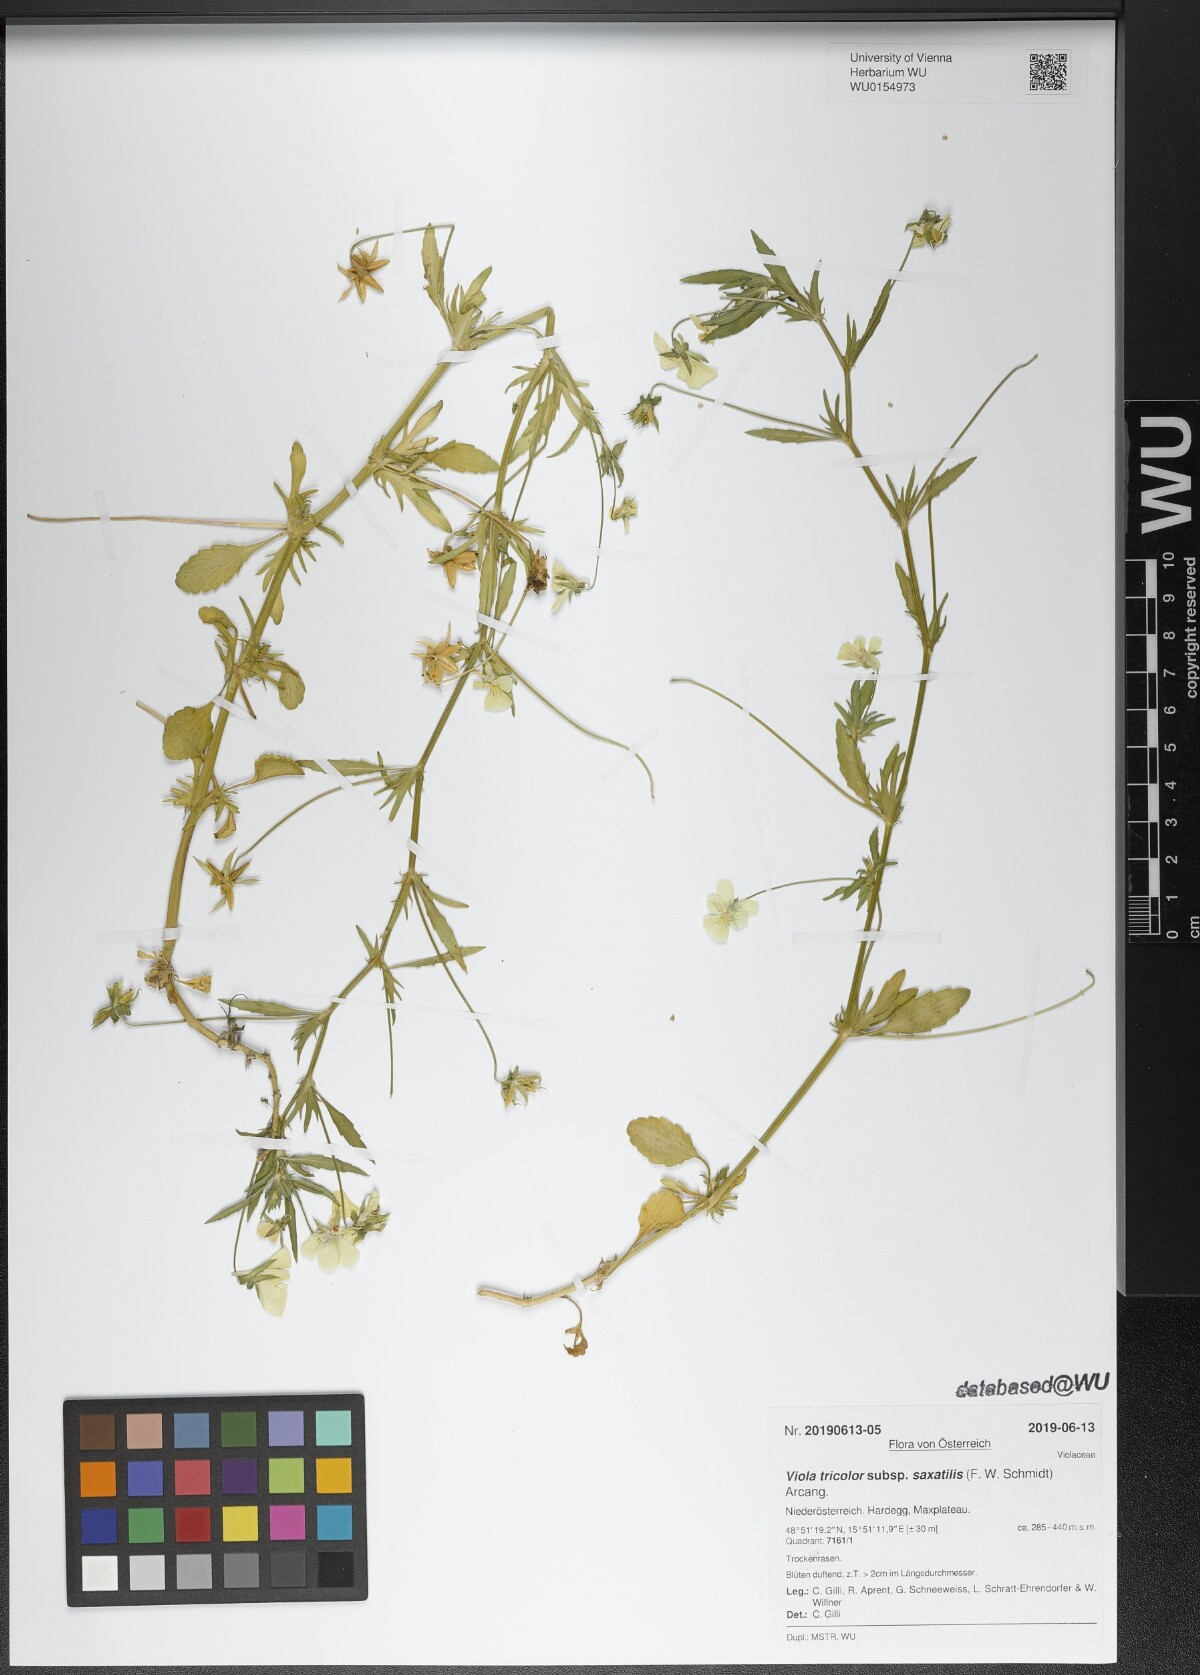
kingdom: Plantae
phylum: Tracheophyta
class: Magnoliopsida
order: Malpighiales
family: Violaceae
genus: Viola
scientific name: Viola tricolor
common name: Pansy
